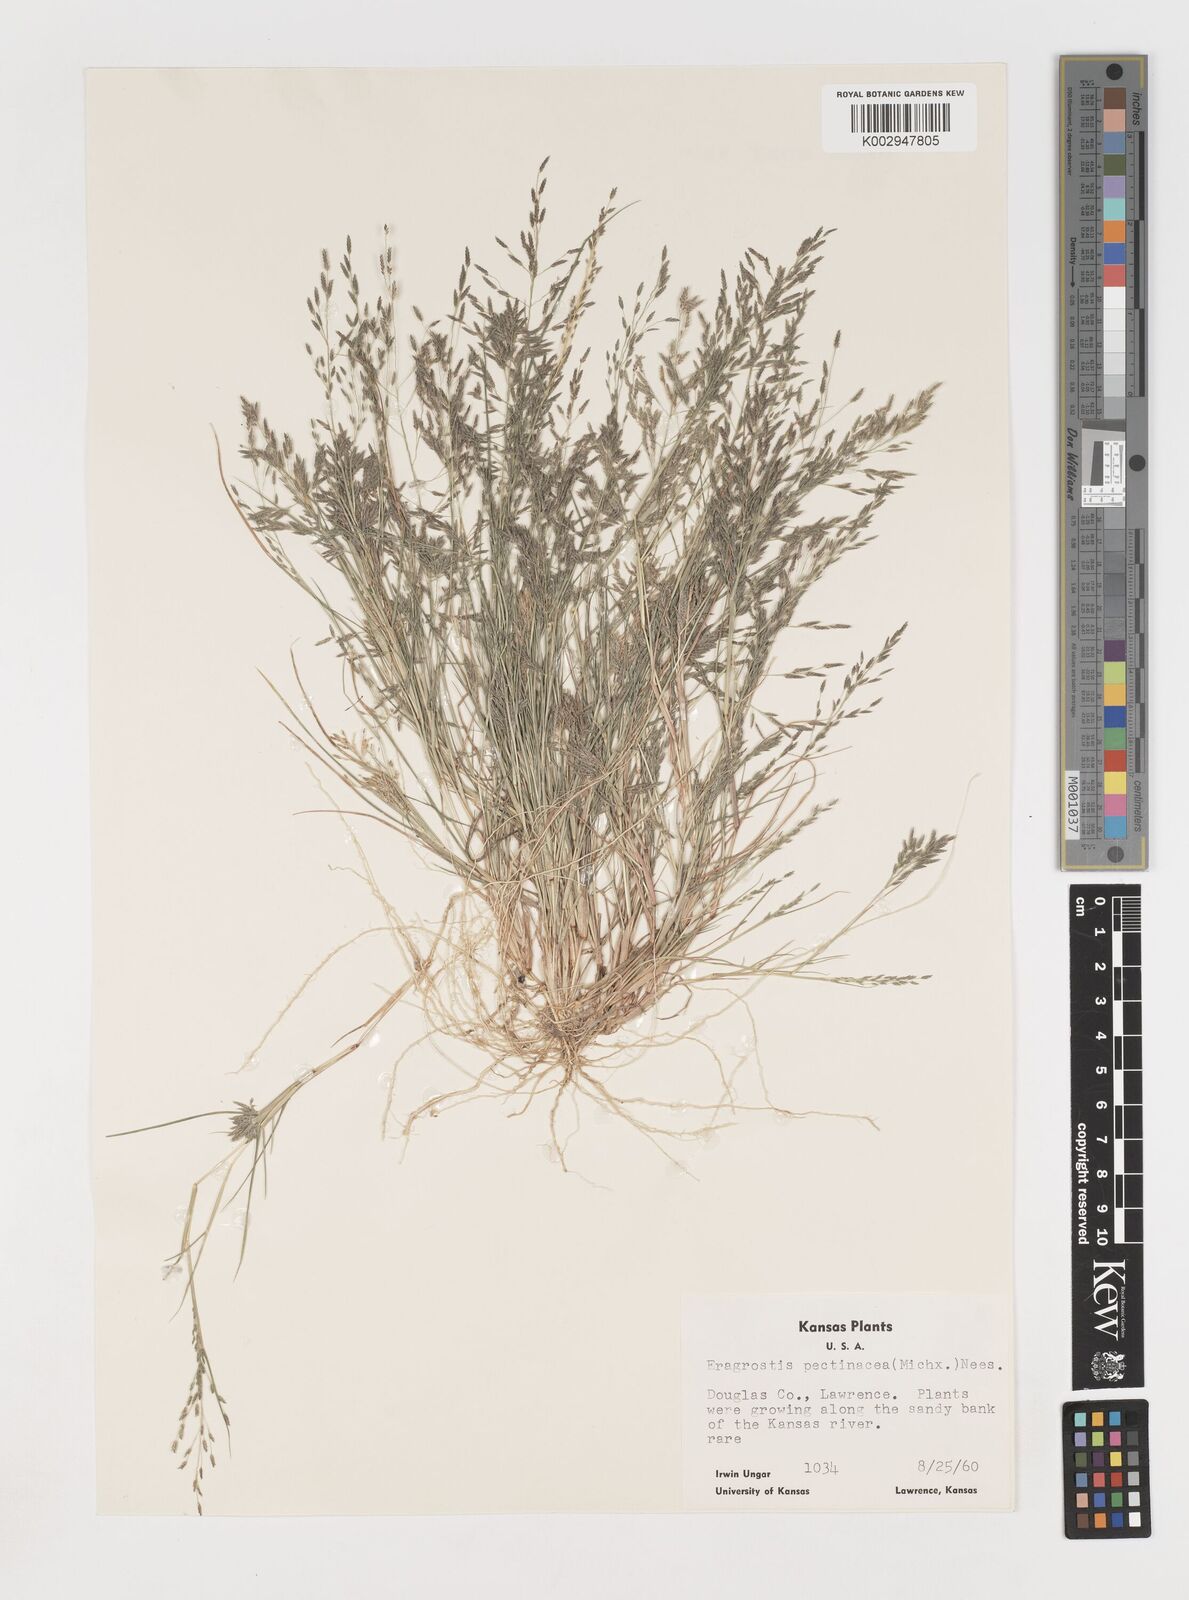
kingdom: Plantae
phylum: Tracheophyta
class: Liliopsida
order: Poales
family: Poaceae
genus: Eragrostis
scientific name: Eragrostis pectinacea
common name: Tufted lovegrass
